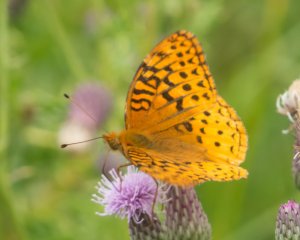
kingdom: Animalia
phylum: Arthropoda
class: Insecta
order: Lepidoptera
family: Nymphalidae
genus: Speyeria
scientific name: Speyeria cybele
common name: Great Spangled Fritillary
